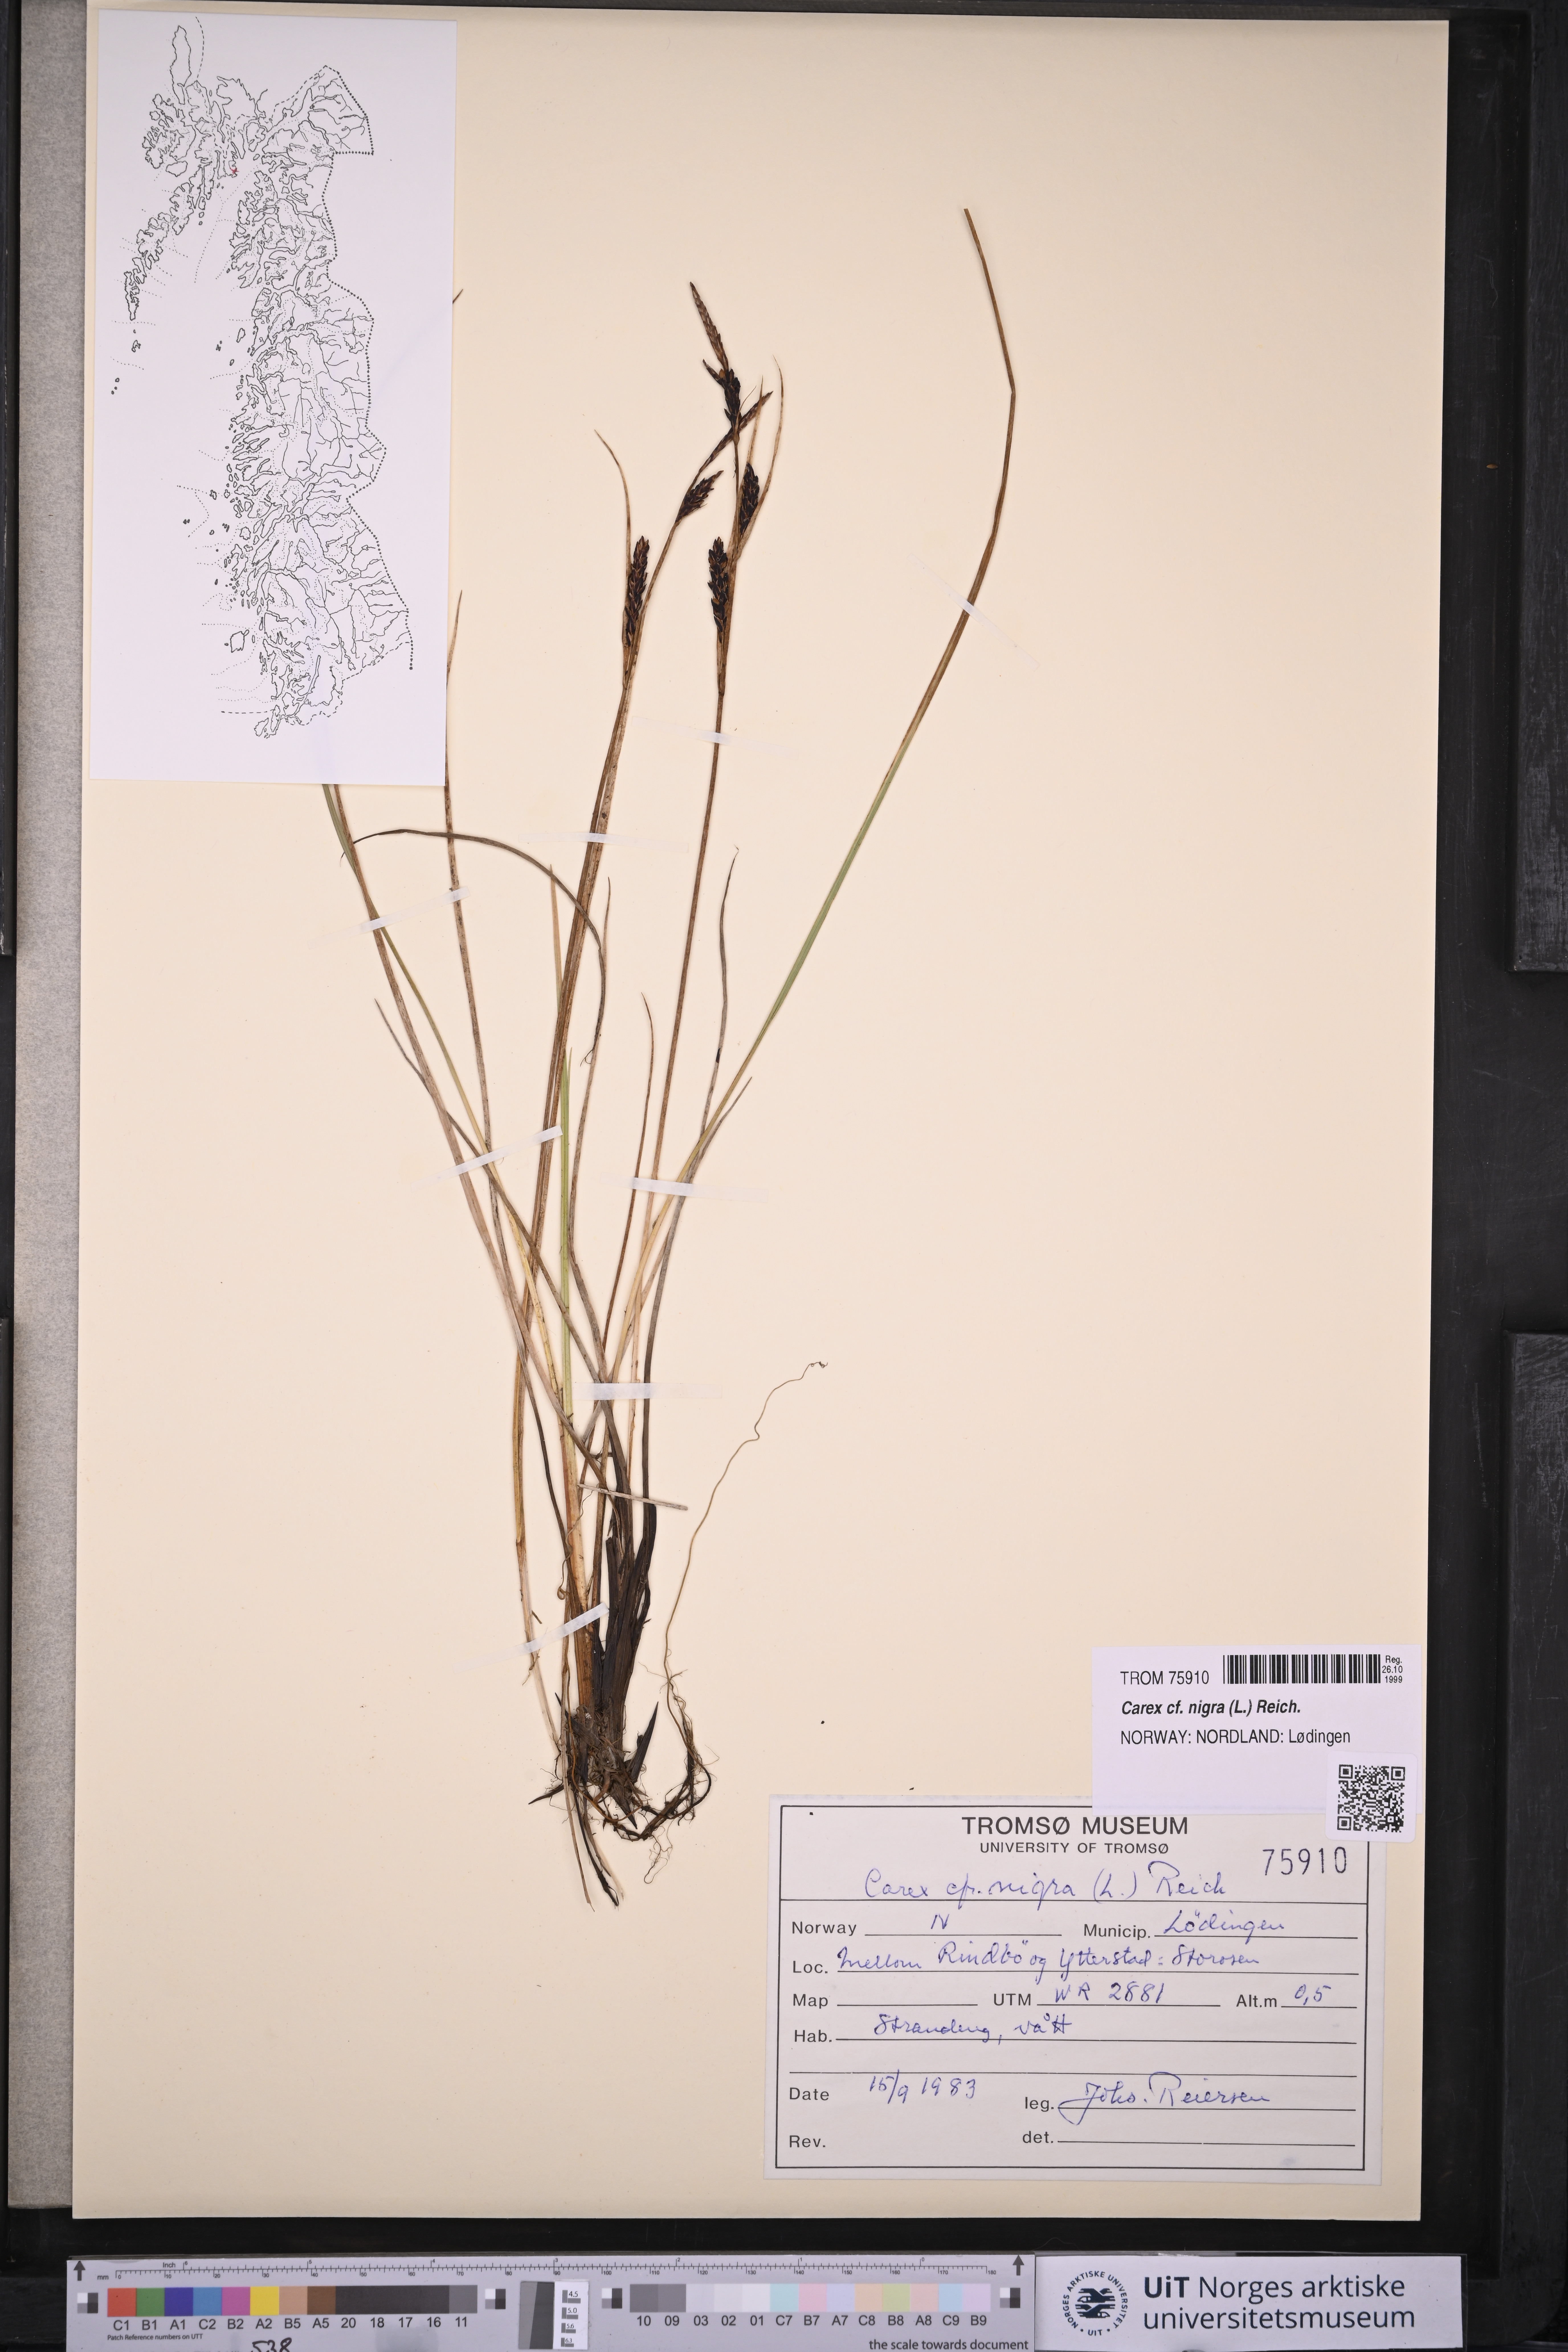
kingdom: Plantae
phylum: Tracheophyta
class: Liliopsida
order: Poales
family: Cyperaceae
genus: Carex
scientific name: Carex nigra
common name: Common sedge
